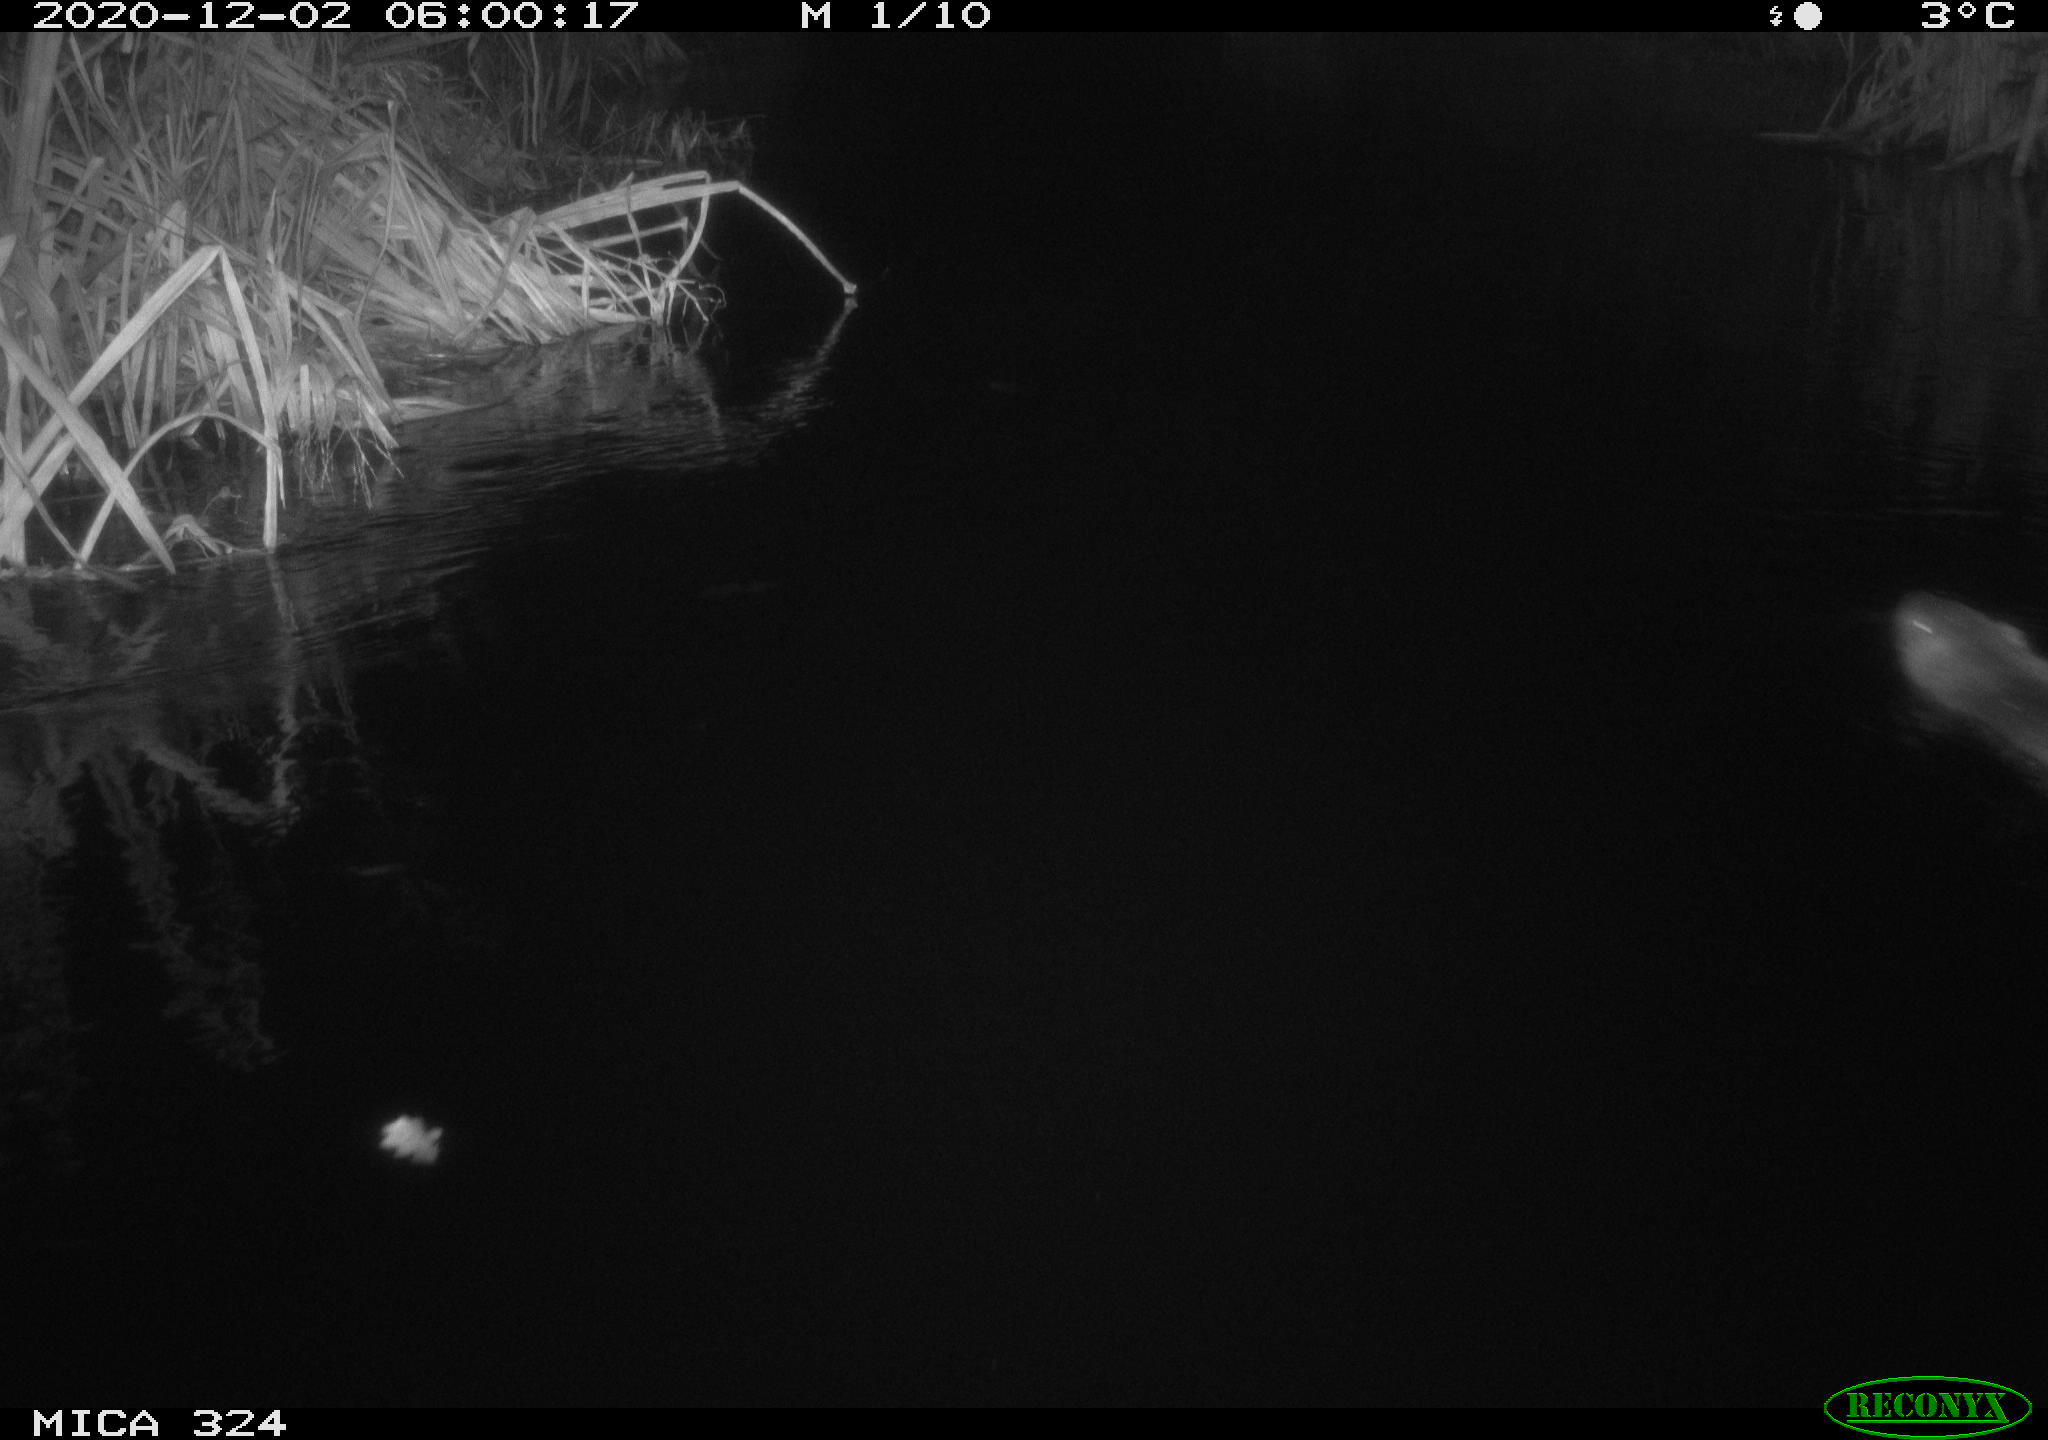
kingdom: Animalia
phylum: Chordata
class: Mammalia
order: Rodentia
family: Myocastoridae
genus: Myocastor
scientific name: Myocastor coypus
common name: Coypu
